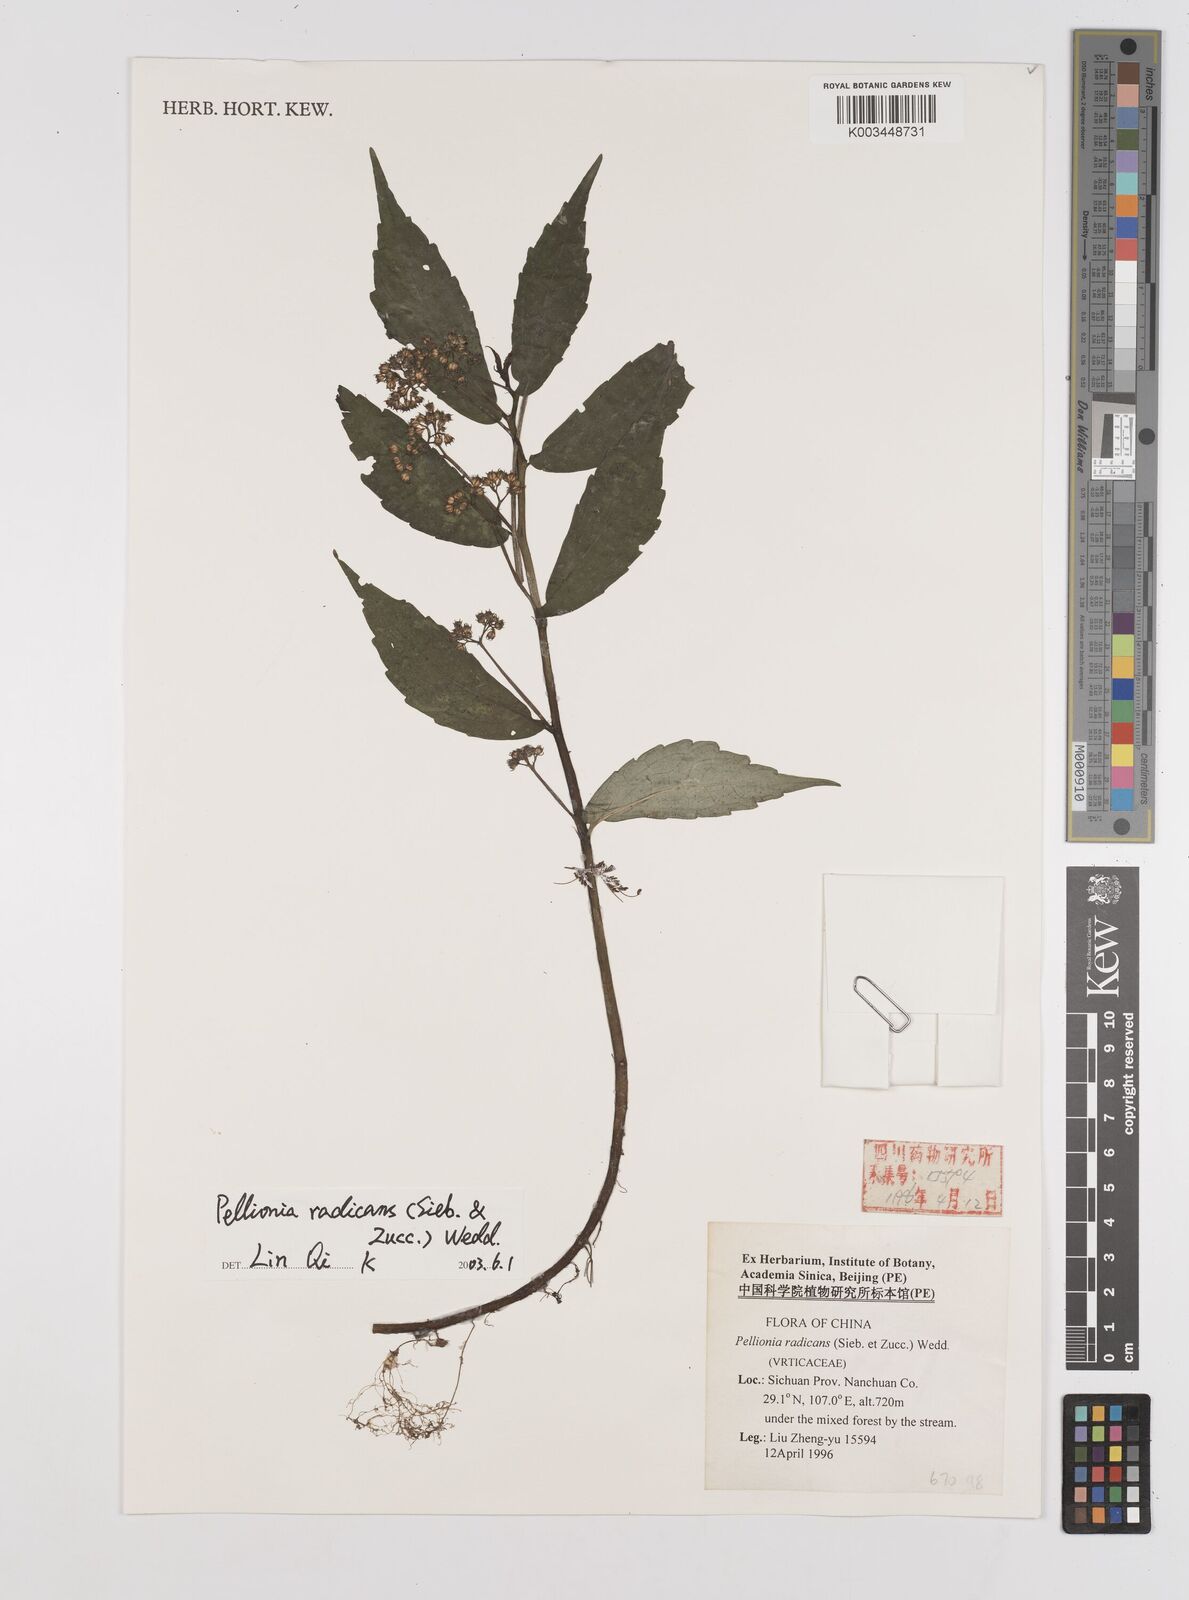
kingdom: Plantae
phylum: Tracheophyta
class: Magnoliopsida
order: Rosales
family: Urticaceae
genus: Elatostema
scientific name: Elatostema radicans
